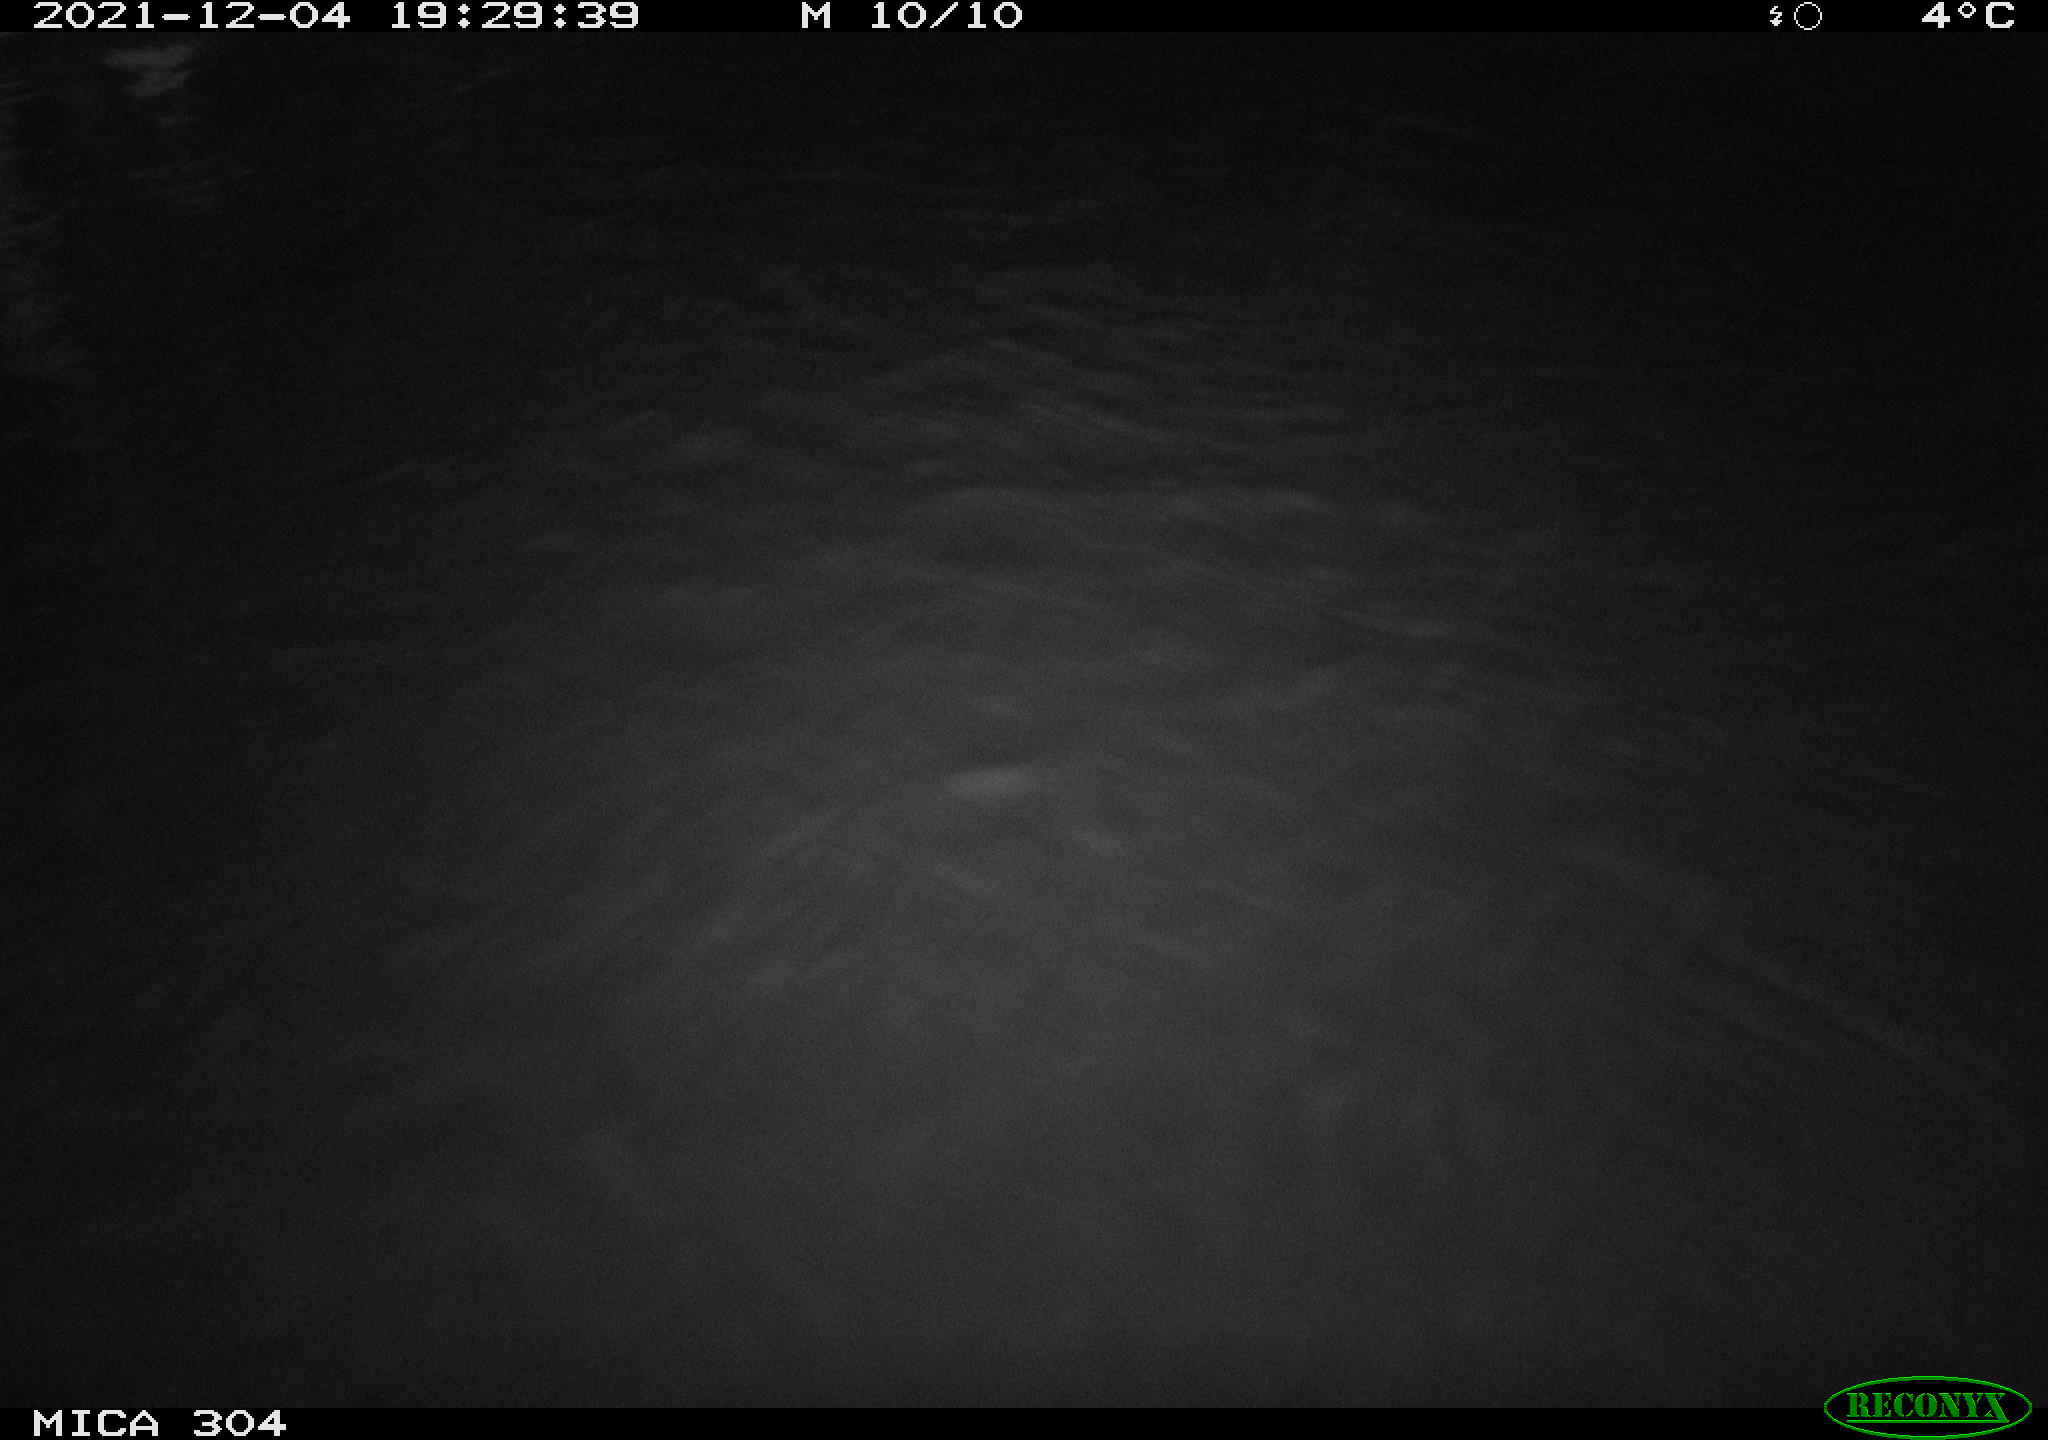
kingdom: Animalia
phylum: Chordata
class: Mammalia
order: Rodentia
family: Muridae
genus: Rattus
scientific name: Rattus norvegicus
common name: Brown rat
